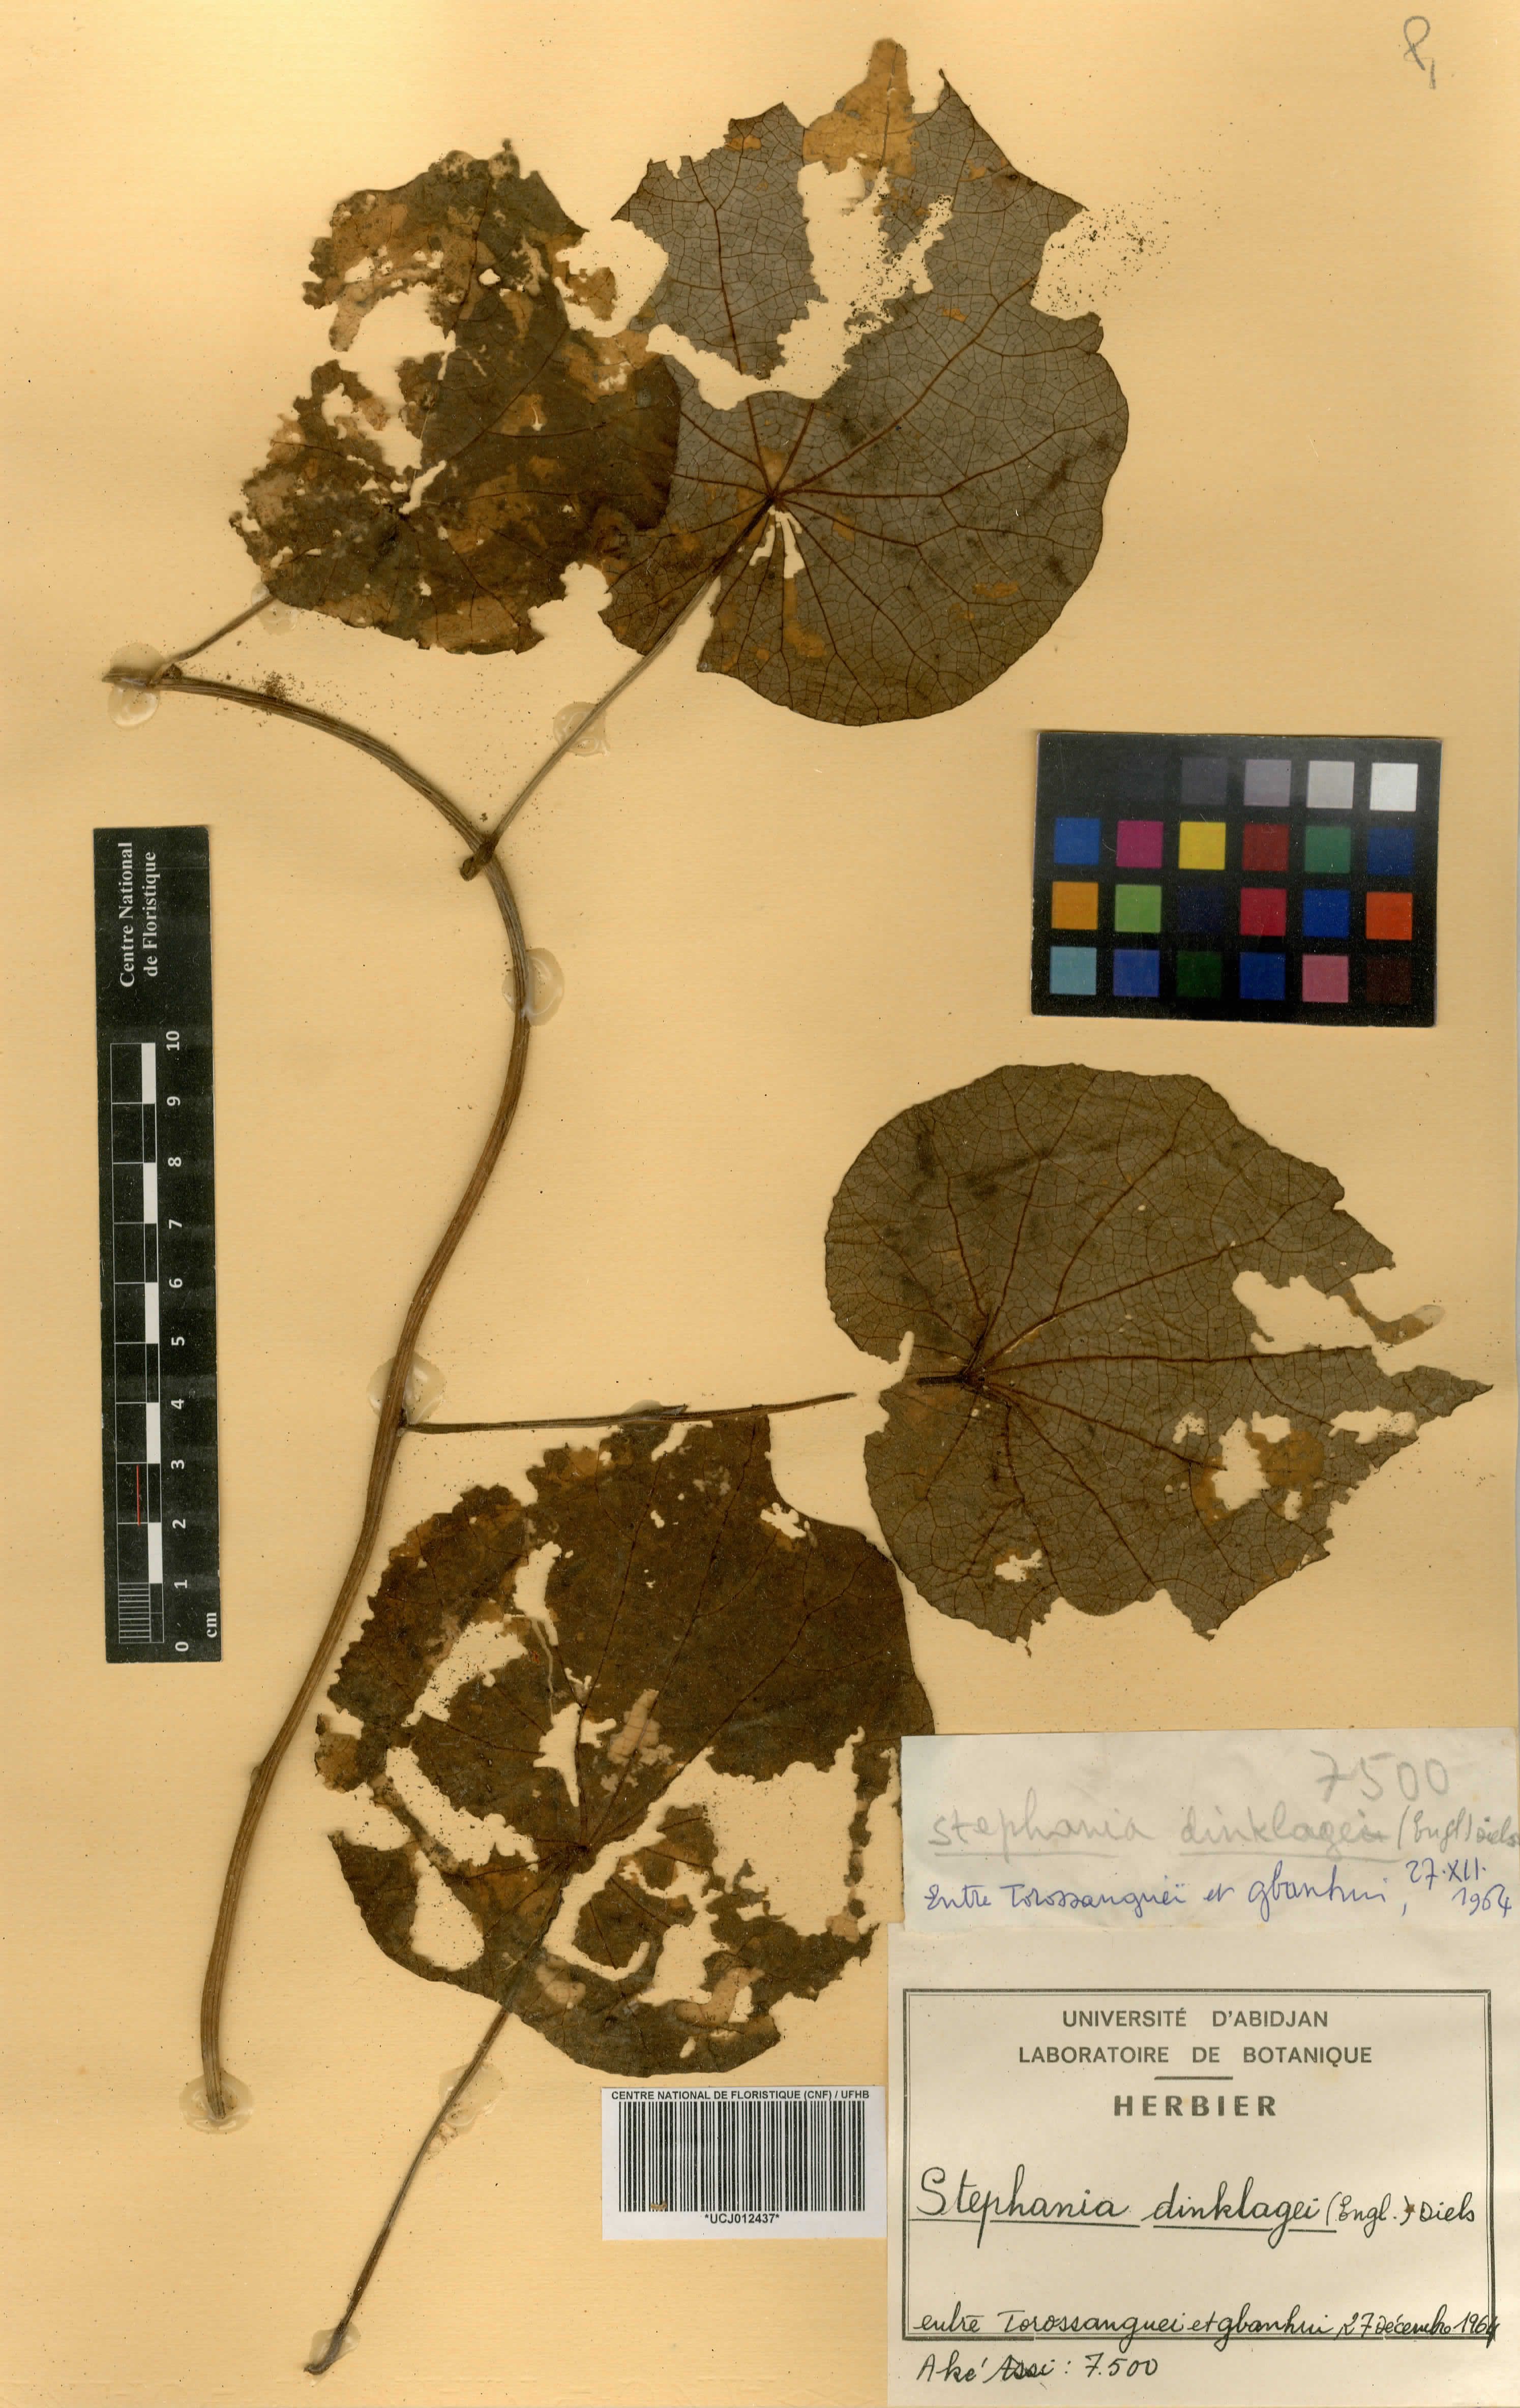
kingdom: Plantae
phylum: Tracheophyta
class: Magnoliopsida
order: Ranunculales
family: Menispermaceae
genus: Stephania
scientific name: Stephania dinklagei
